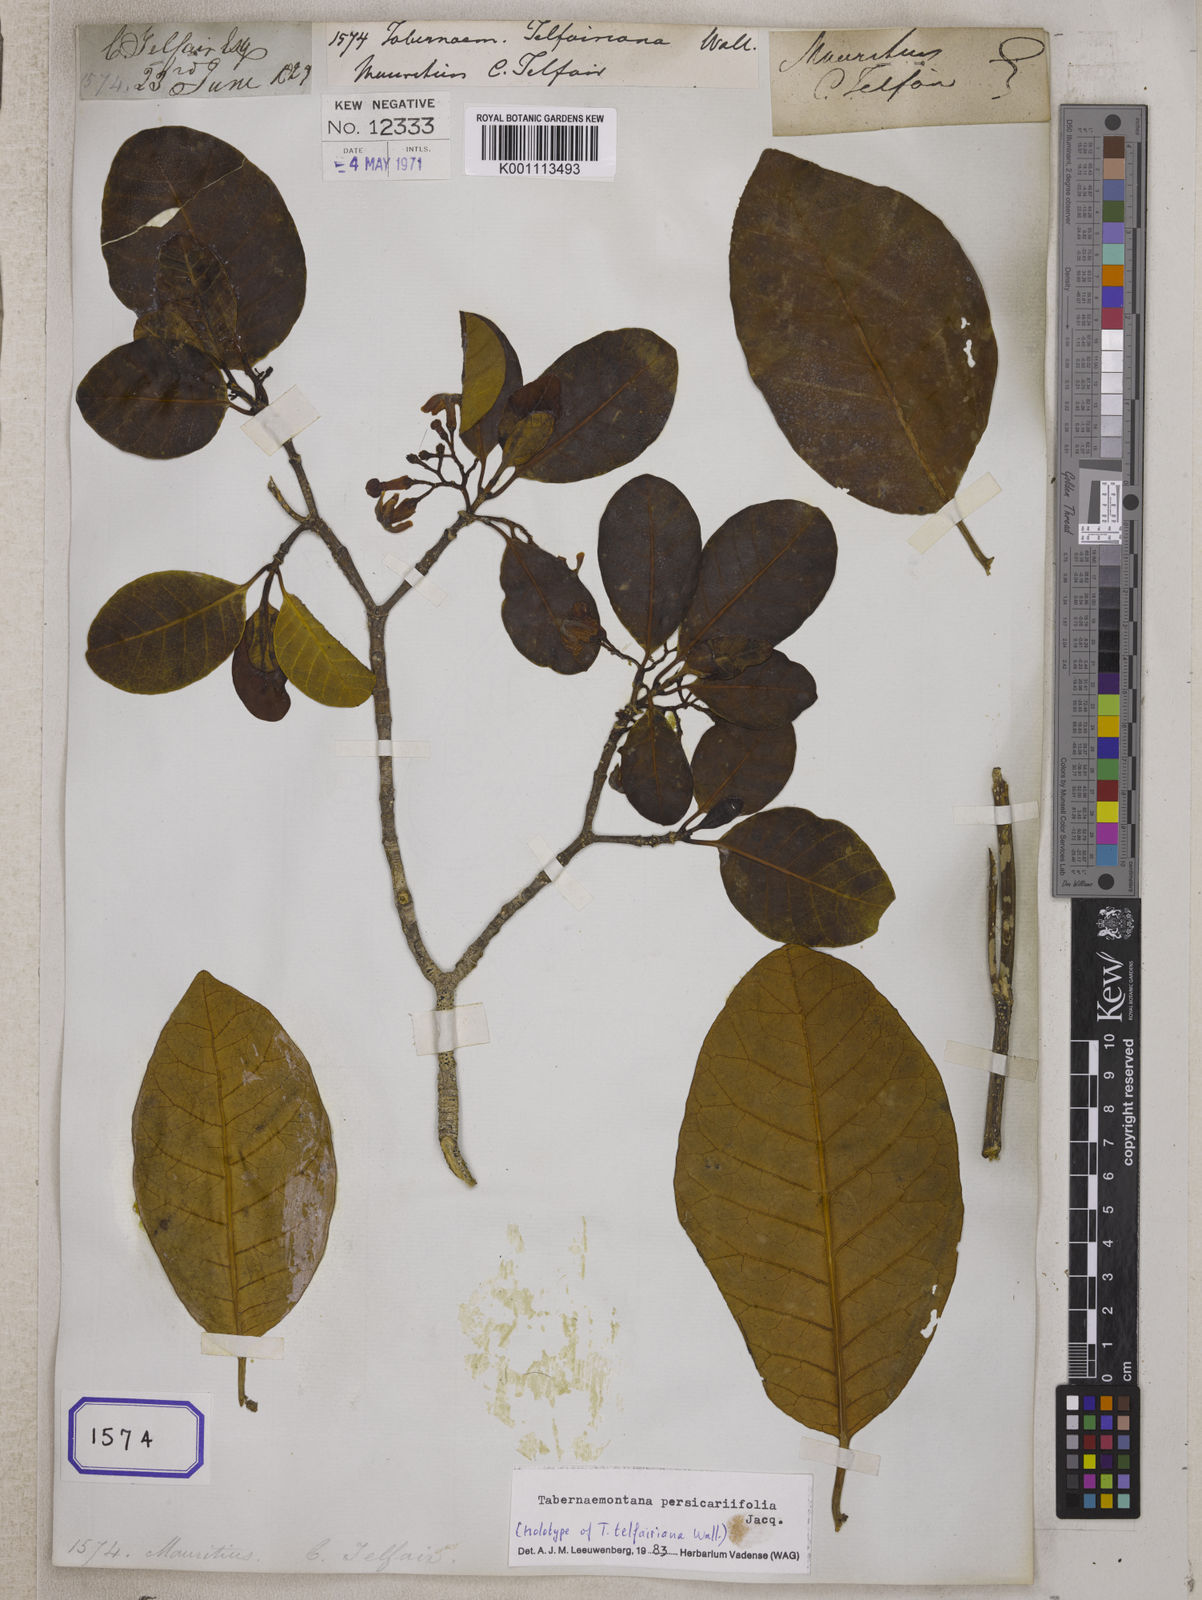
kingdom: Plantae
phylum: Tracheophyta
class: Magnoliopsida
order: Gentianales
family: Apocynaceae
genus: Tabernaemontana
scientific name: Tabernaemontana persicariifolia
